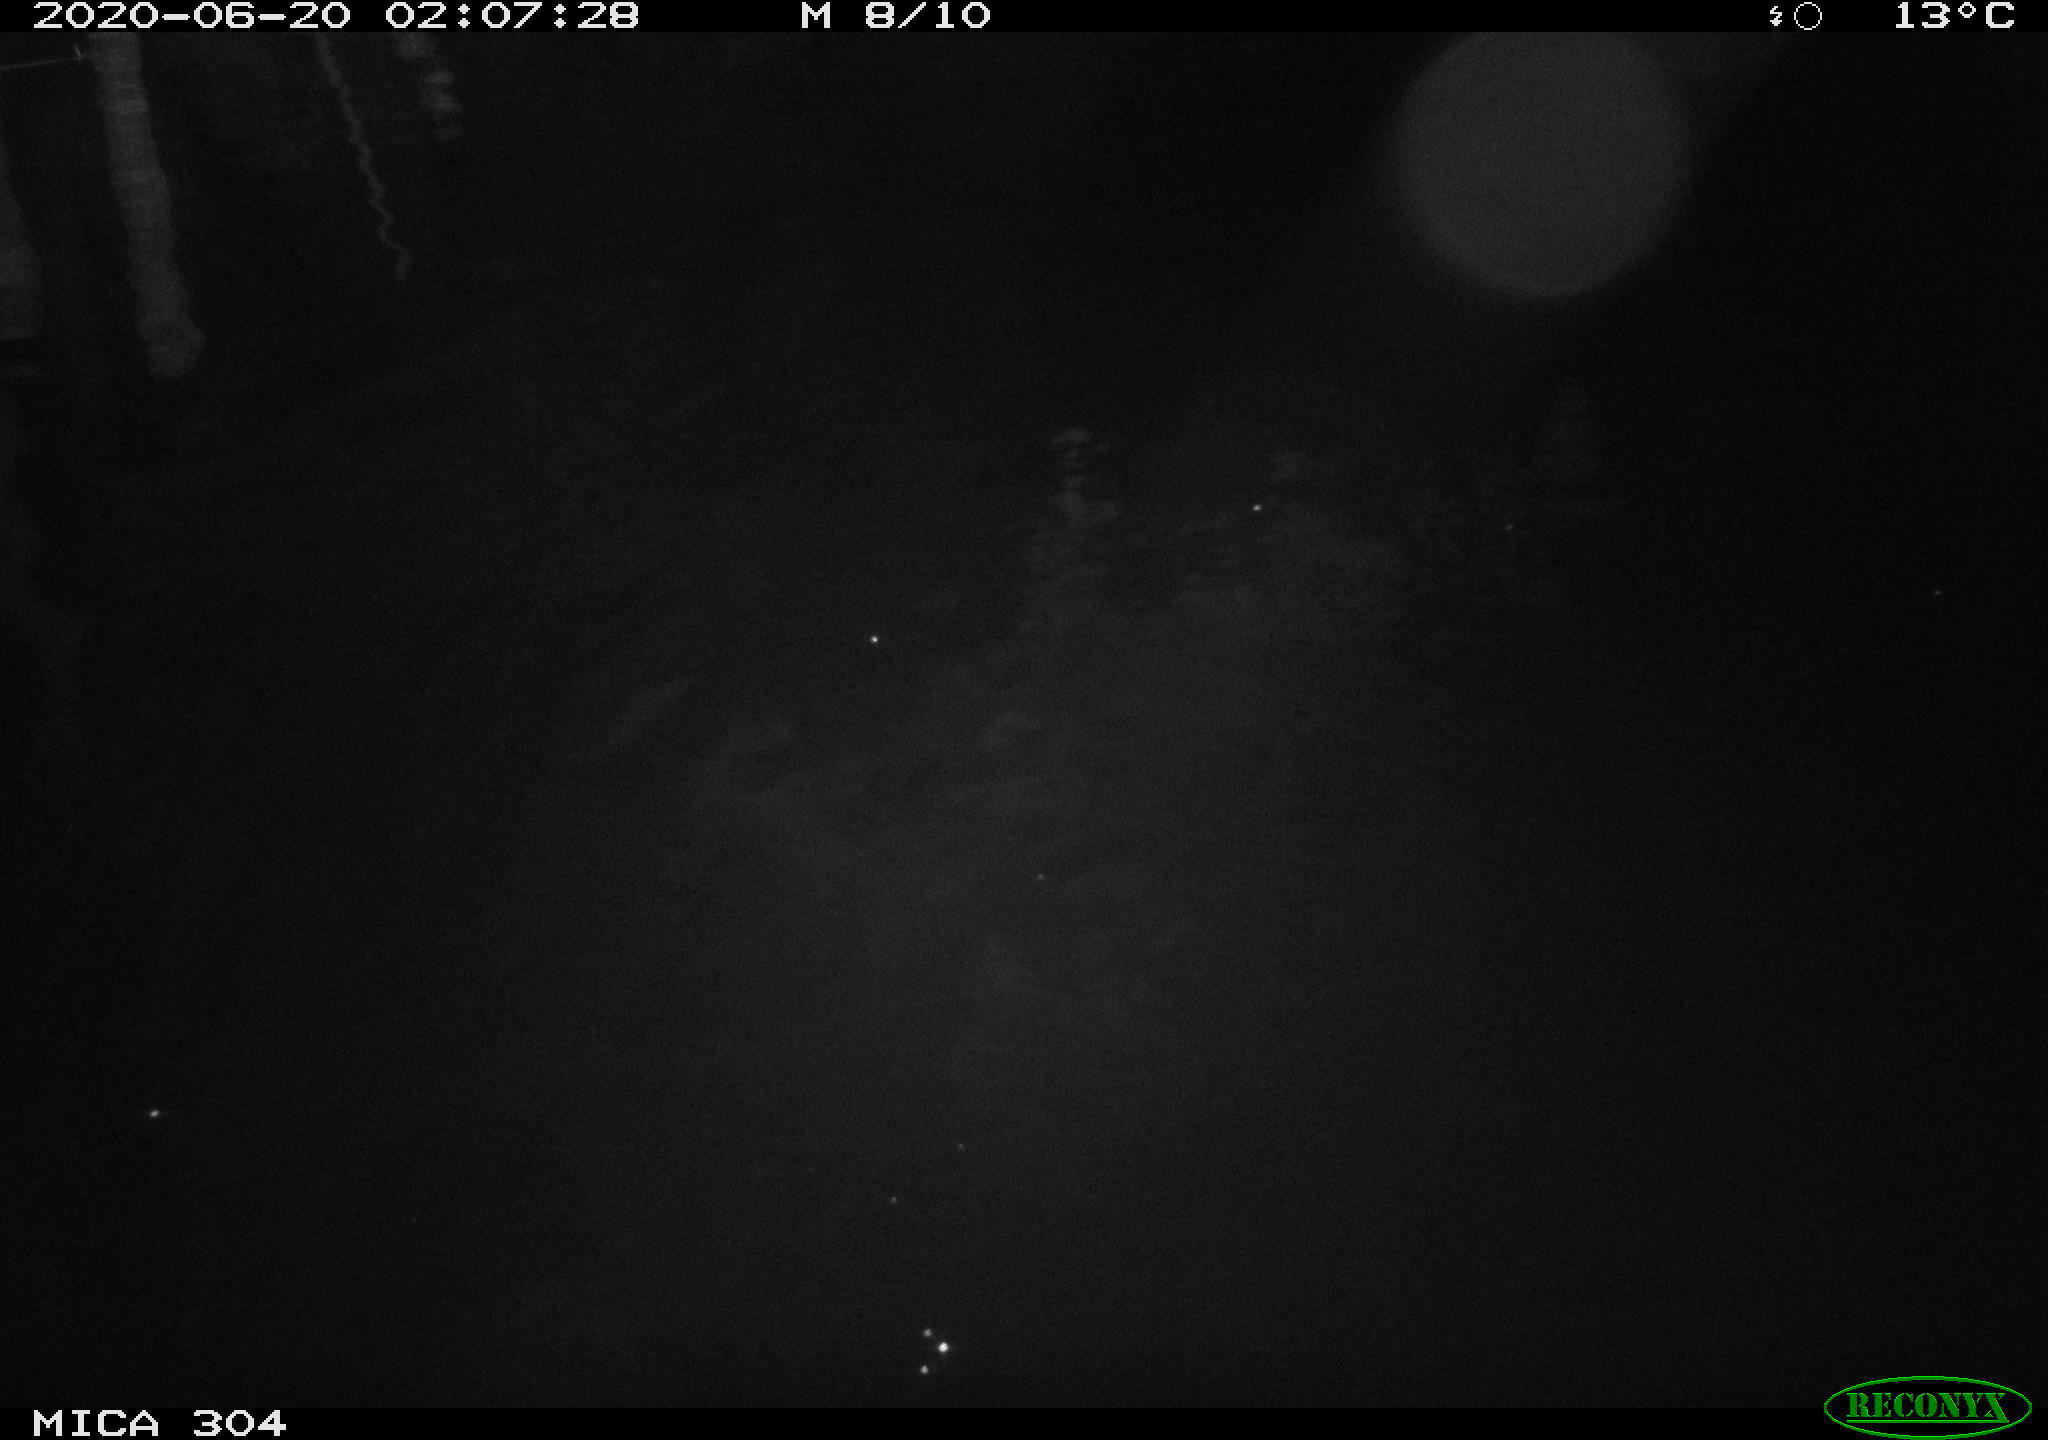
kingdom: Animalia
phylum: Chordata
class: Aves
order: Anseriformes
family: Anatidae
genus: Anas
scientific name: Anas platyrhynchos
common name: Mallard
